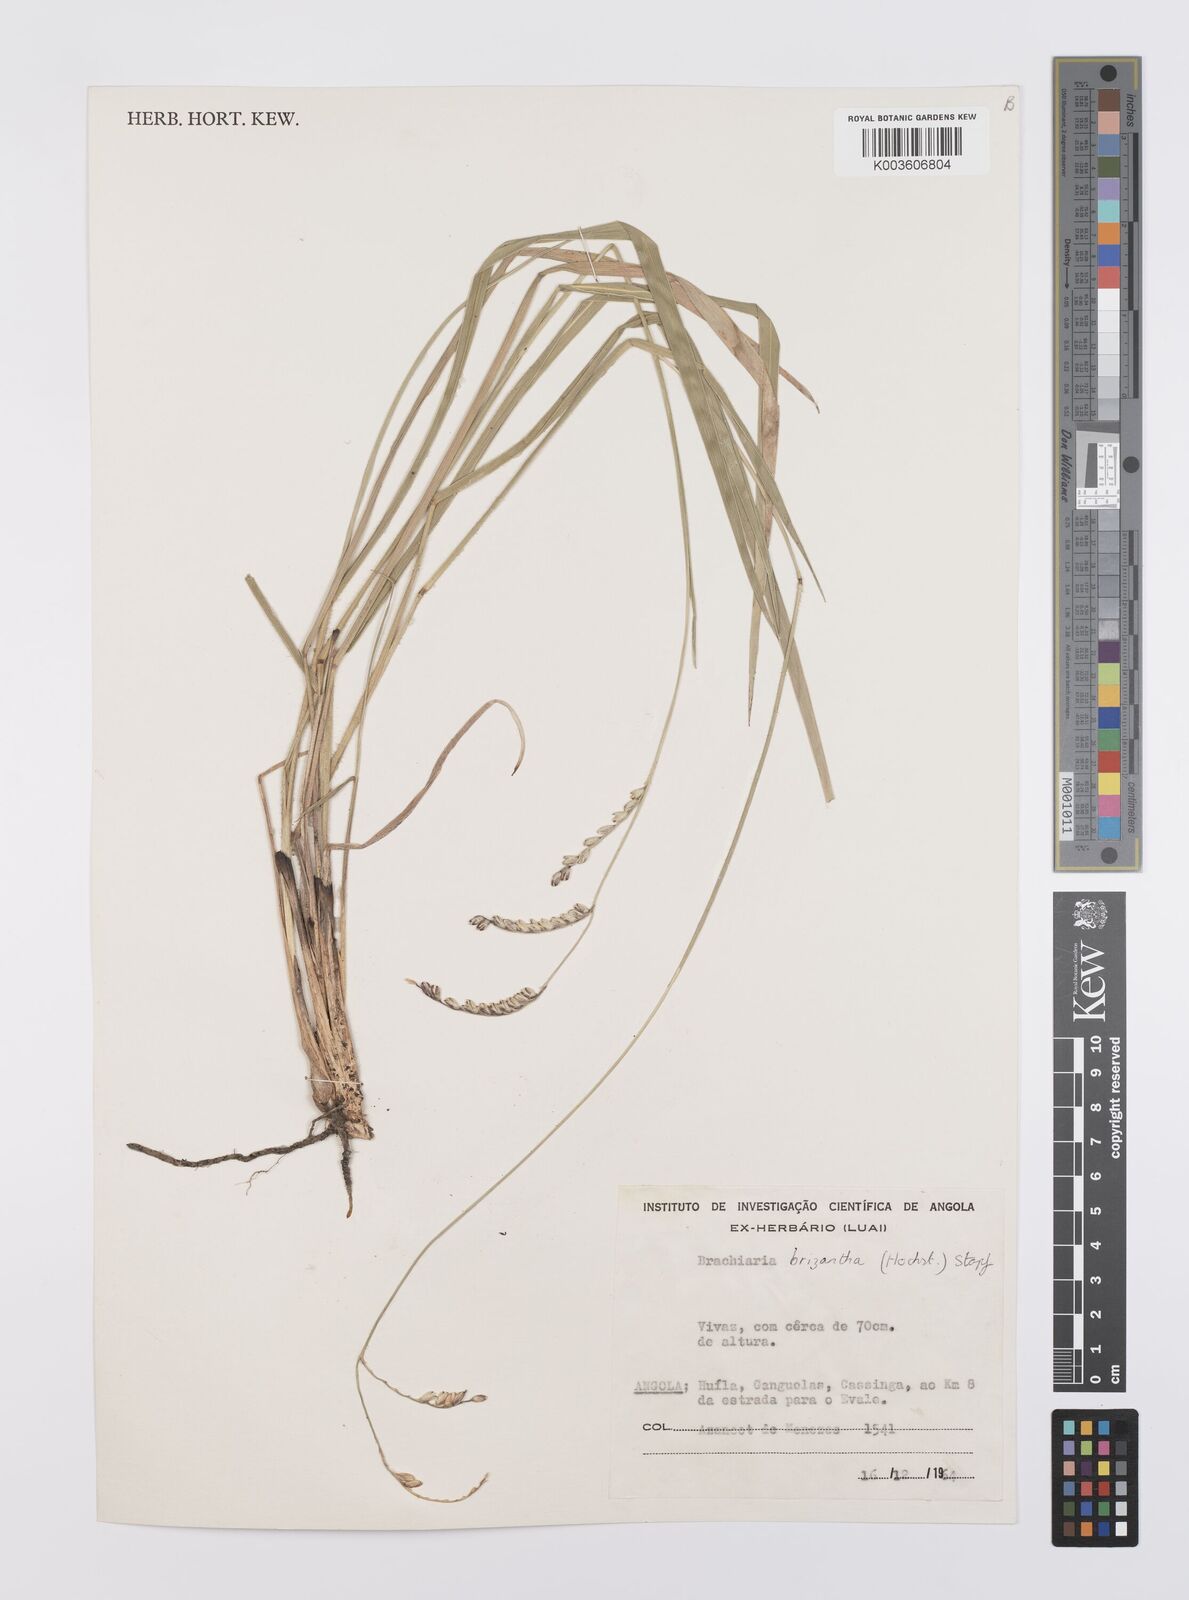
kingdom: Plantae
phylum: Tracheophyta
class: Liliopsida
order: Poales
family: Poaceae
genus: Urochloa
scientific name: Urochloa brizantha
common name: Palisade signalgrass
